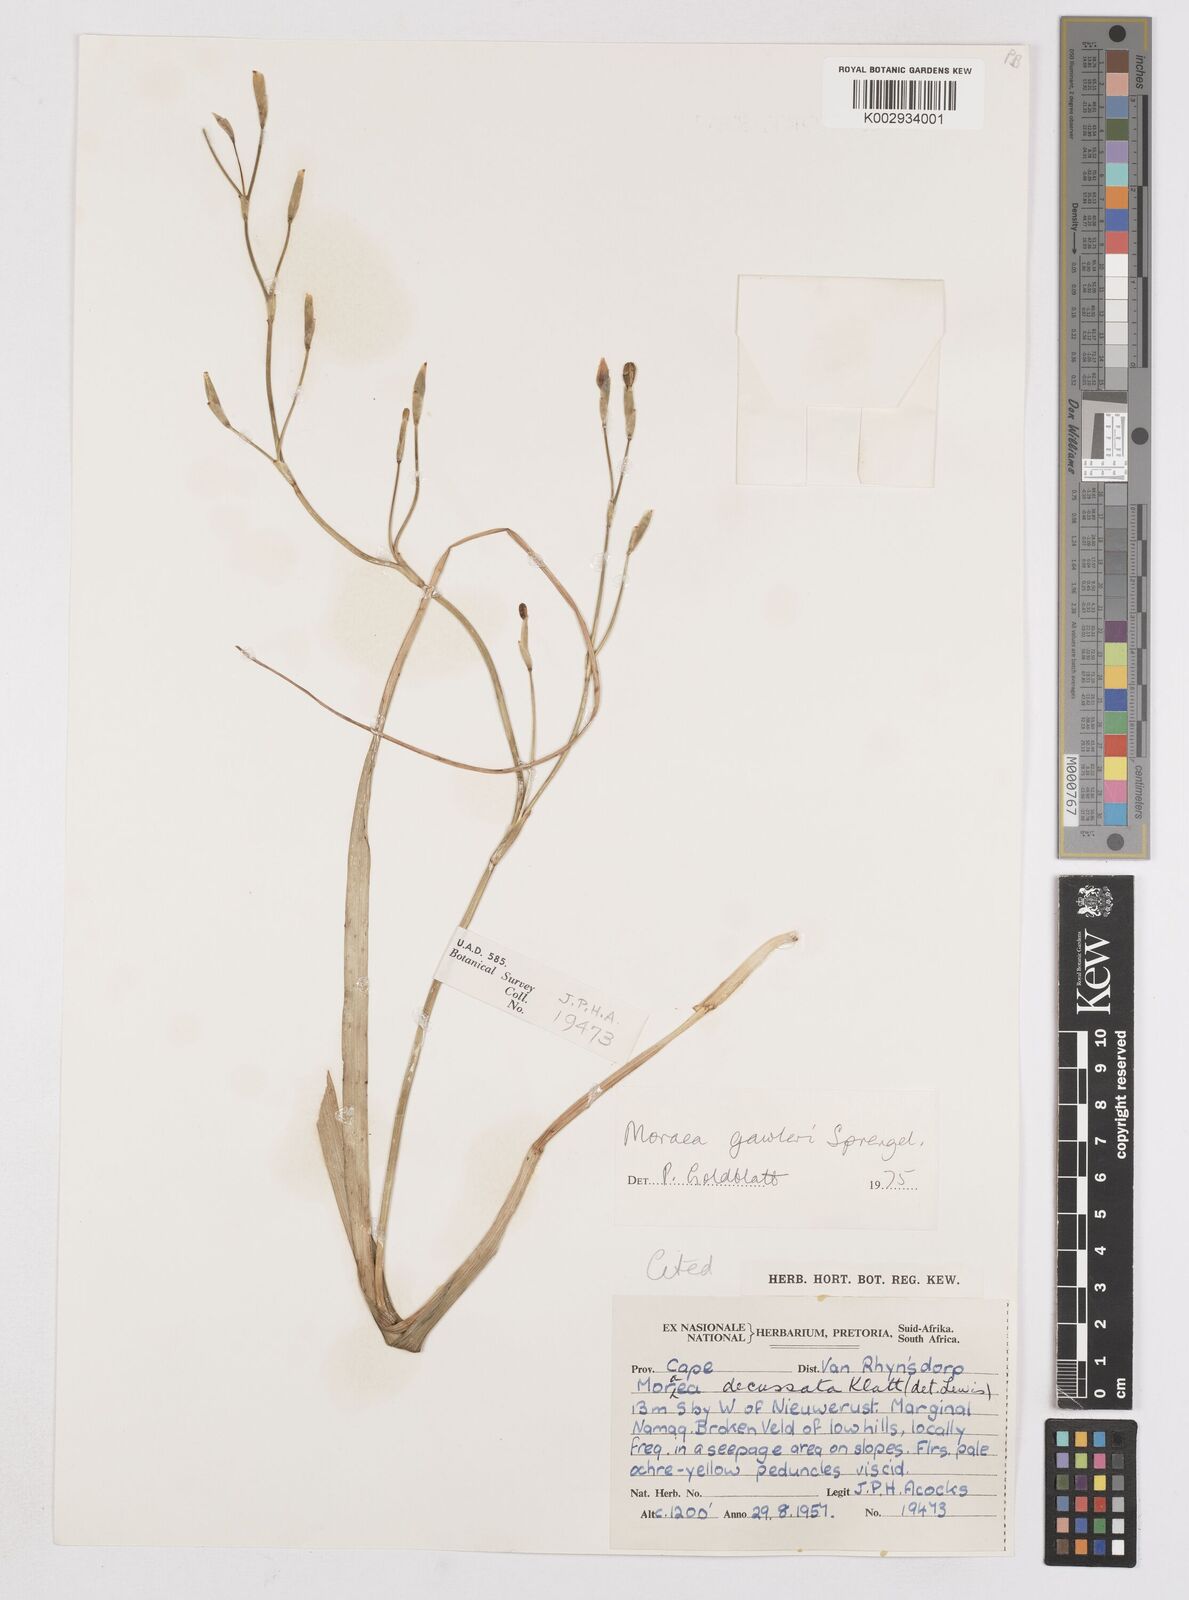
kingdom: Plantae
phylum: Tracheophyta
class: Liliopsida
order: Asparagales
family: Iridaceae
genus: Moraea
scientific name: Moraea gawleri
